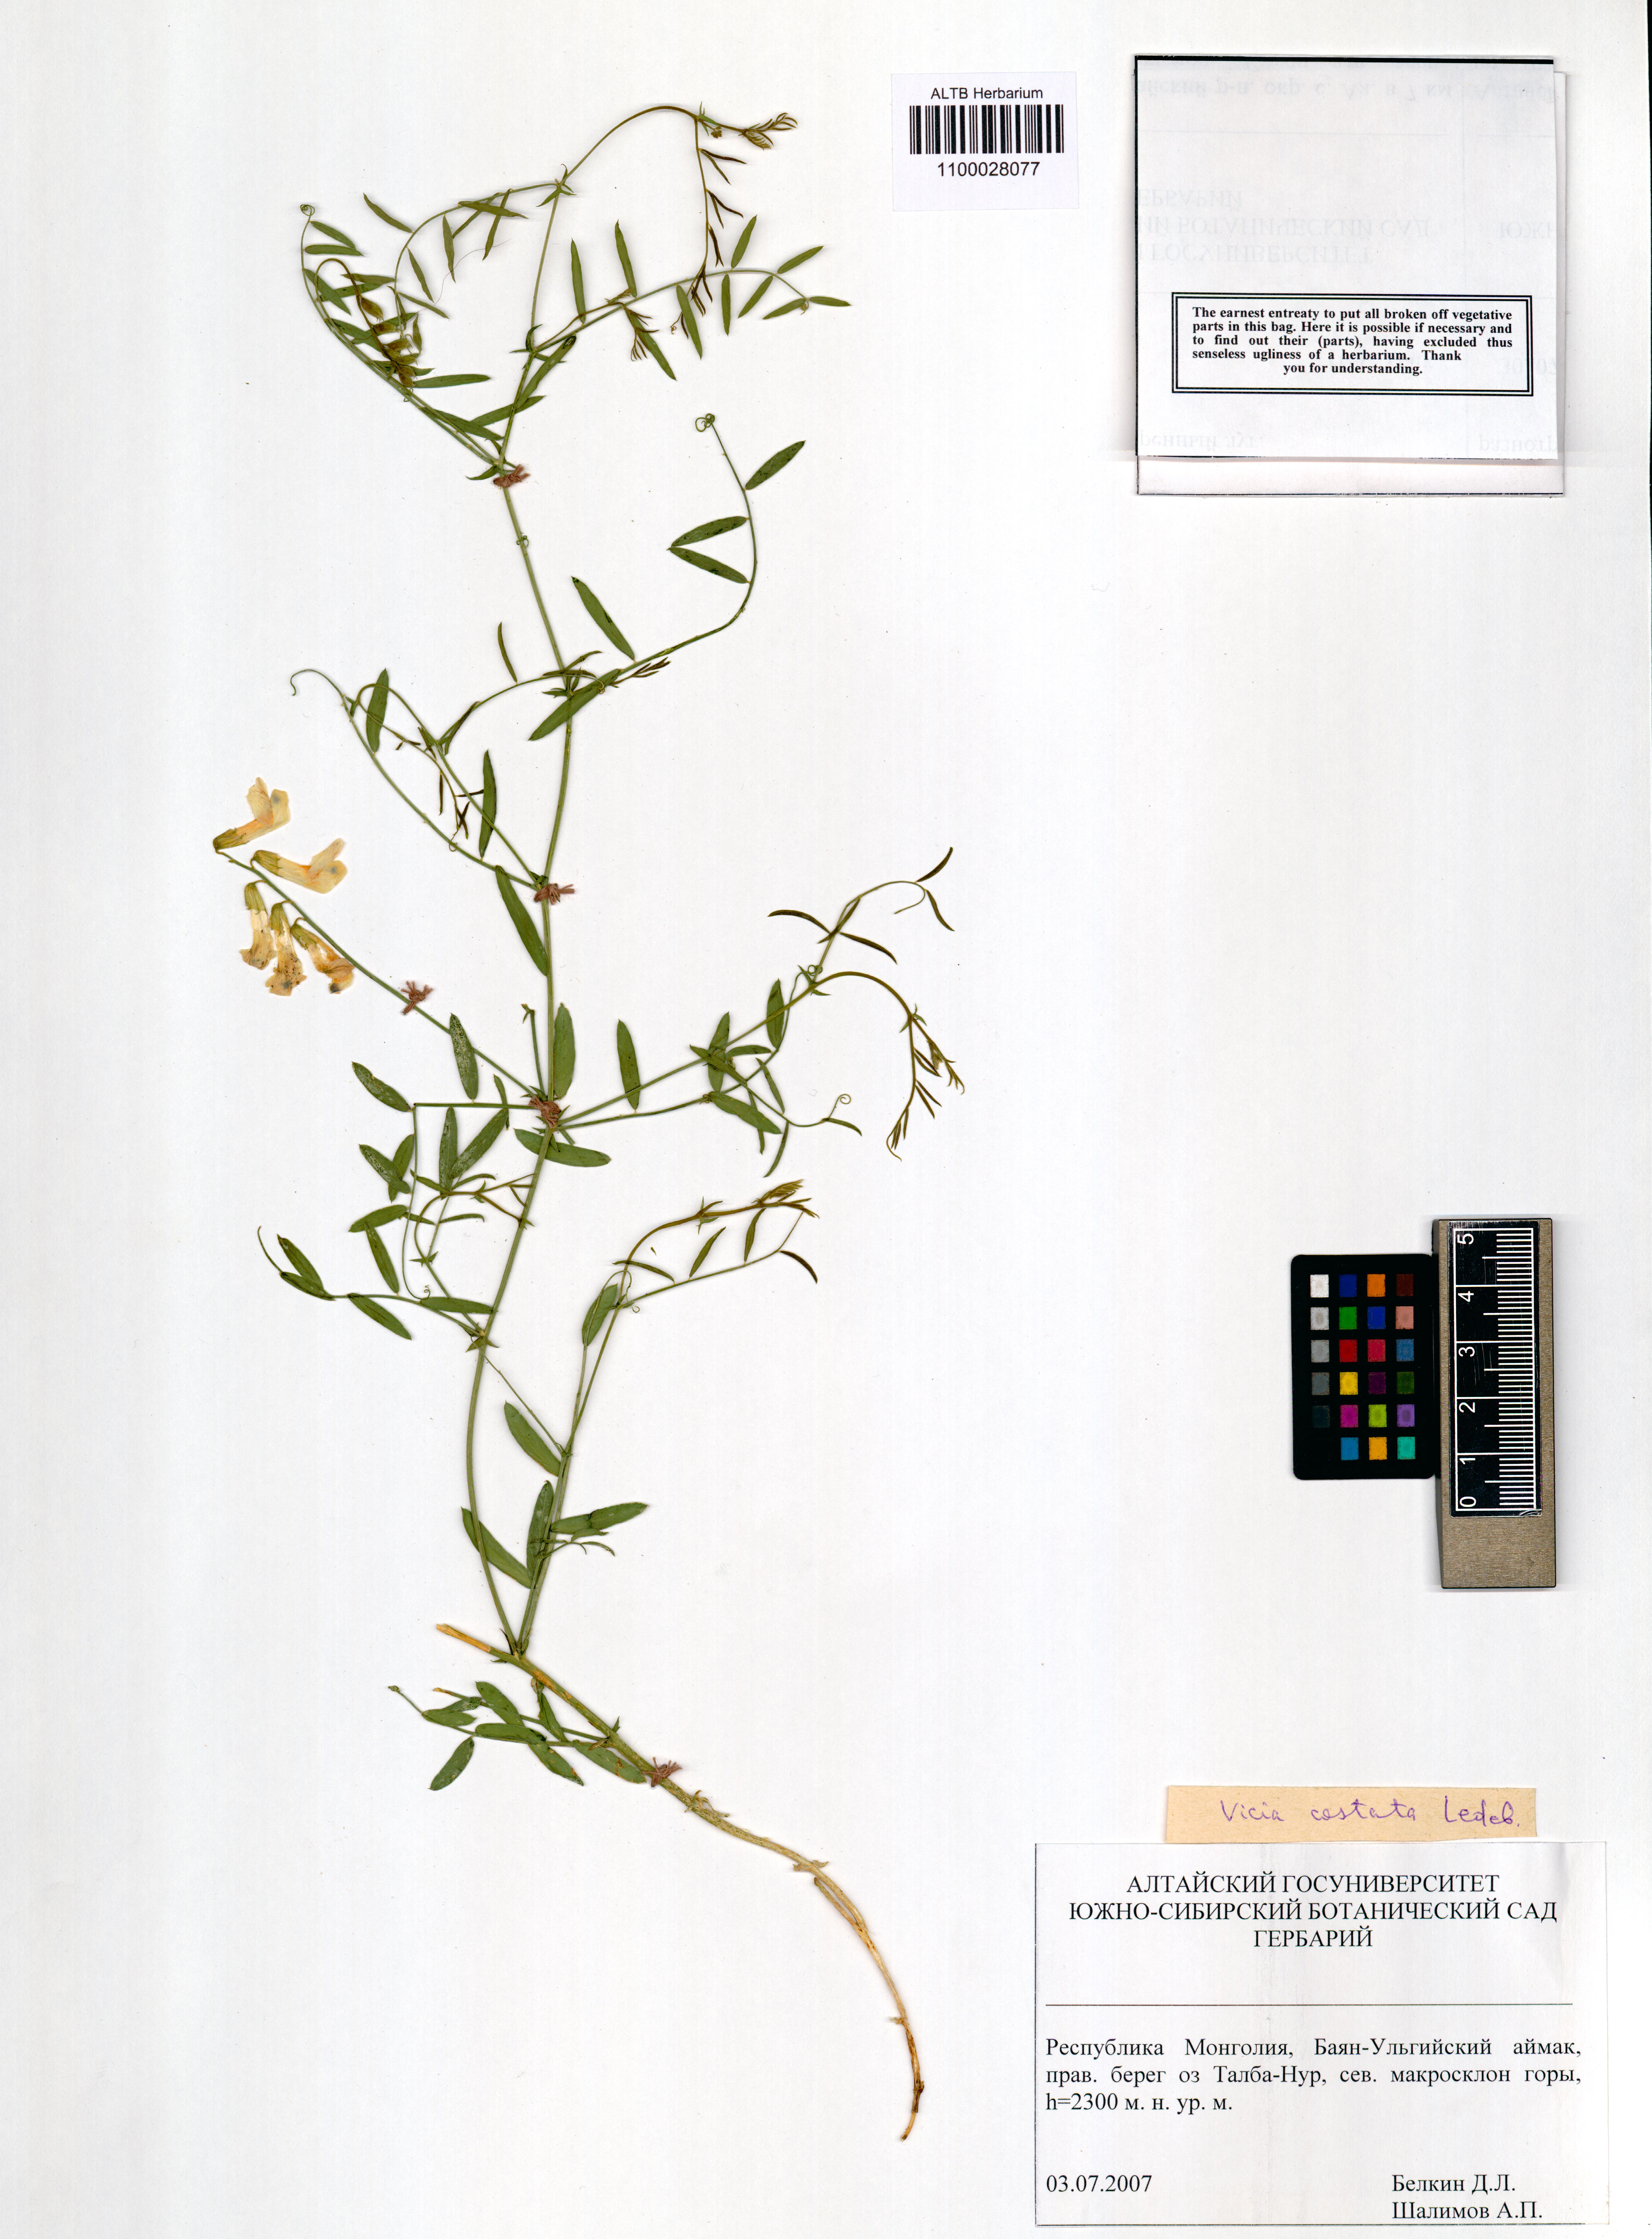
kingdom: Plantae
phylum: Tracheophyta
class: Magnoliopsida
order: Fabales
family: Fabaceae
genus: Vicia
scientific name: Vicia costata
